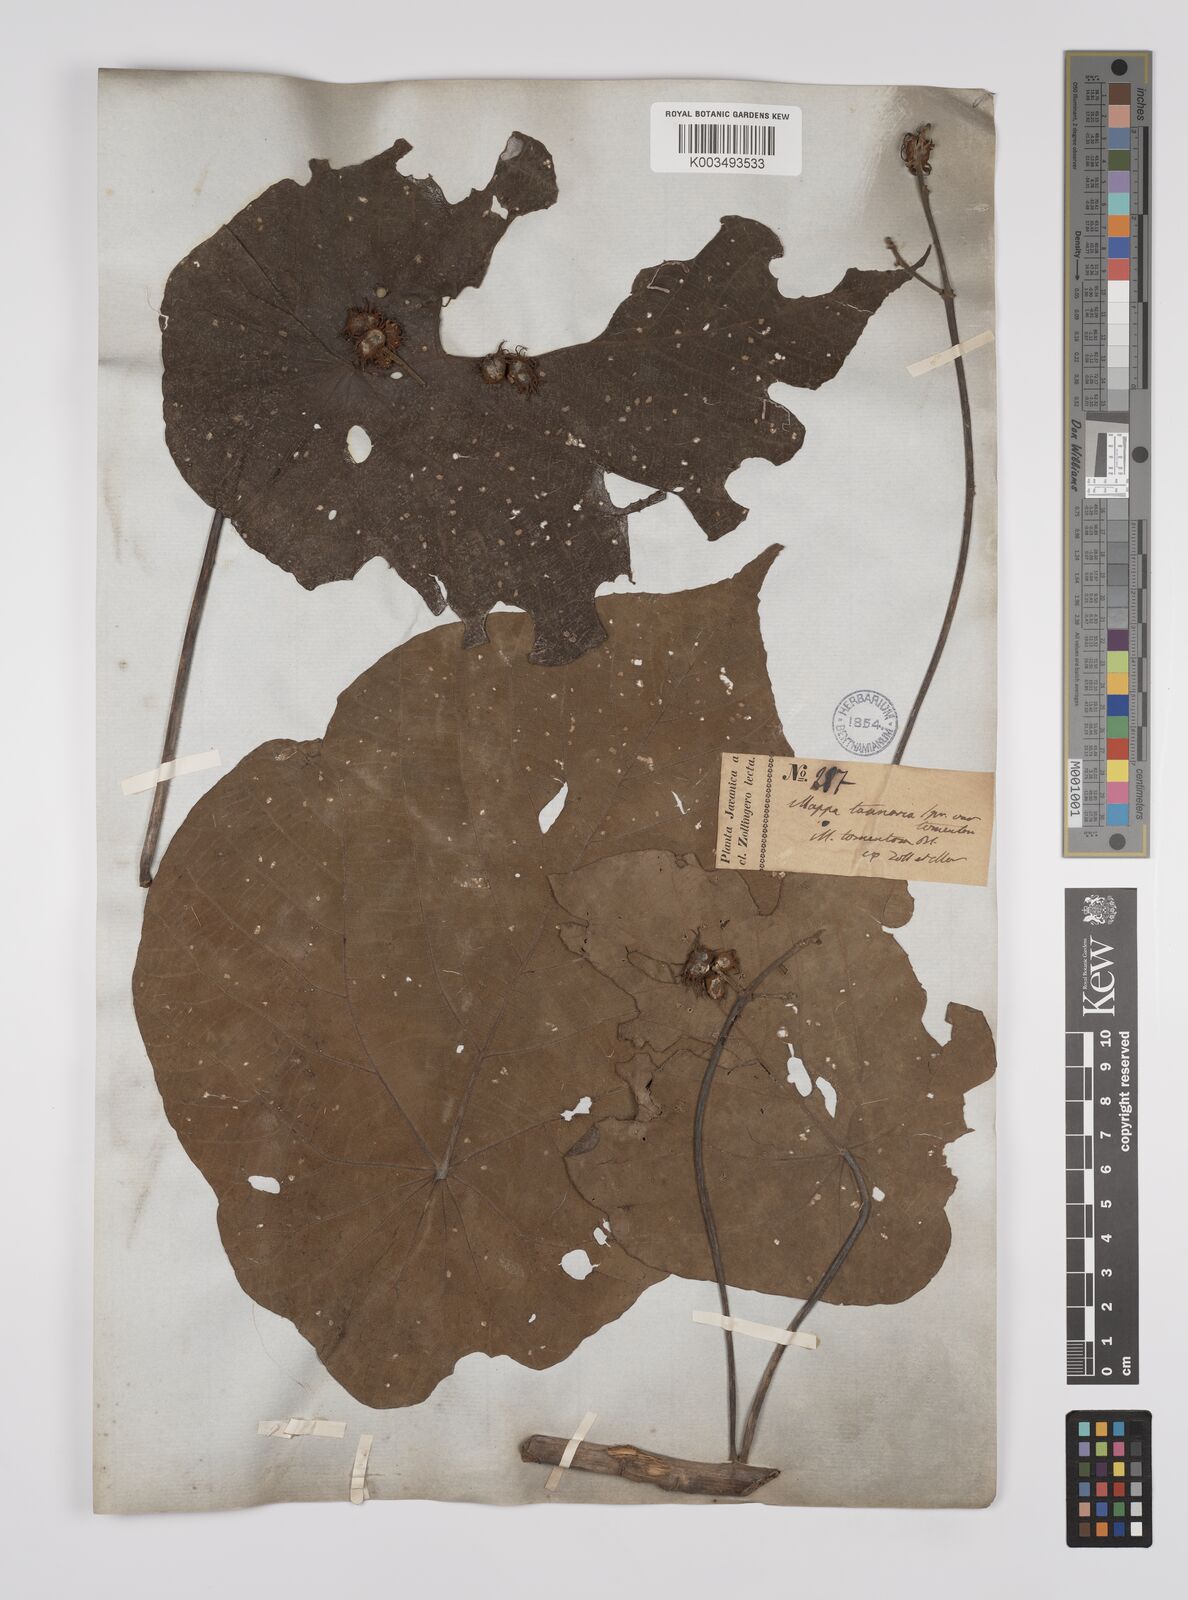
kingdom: Plantae
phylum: Tracheophyta
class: Magnoliopsida
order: Malpighiales
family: Euphorbiaceae
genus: Macaranga
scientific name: Macaranga tanarius
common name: Parasol leaf tree
